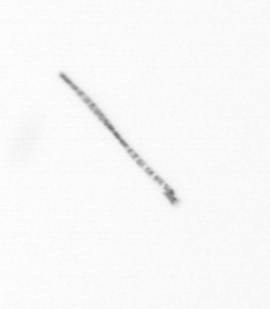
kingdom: Chromista
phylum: Ochrophyta
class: Bacillariophyceae
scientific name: Bacillariophyceae
